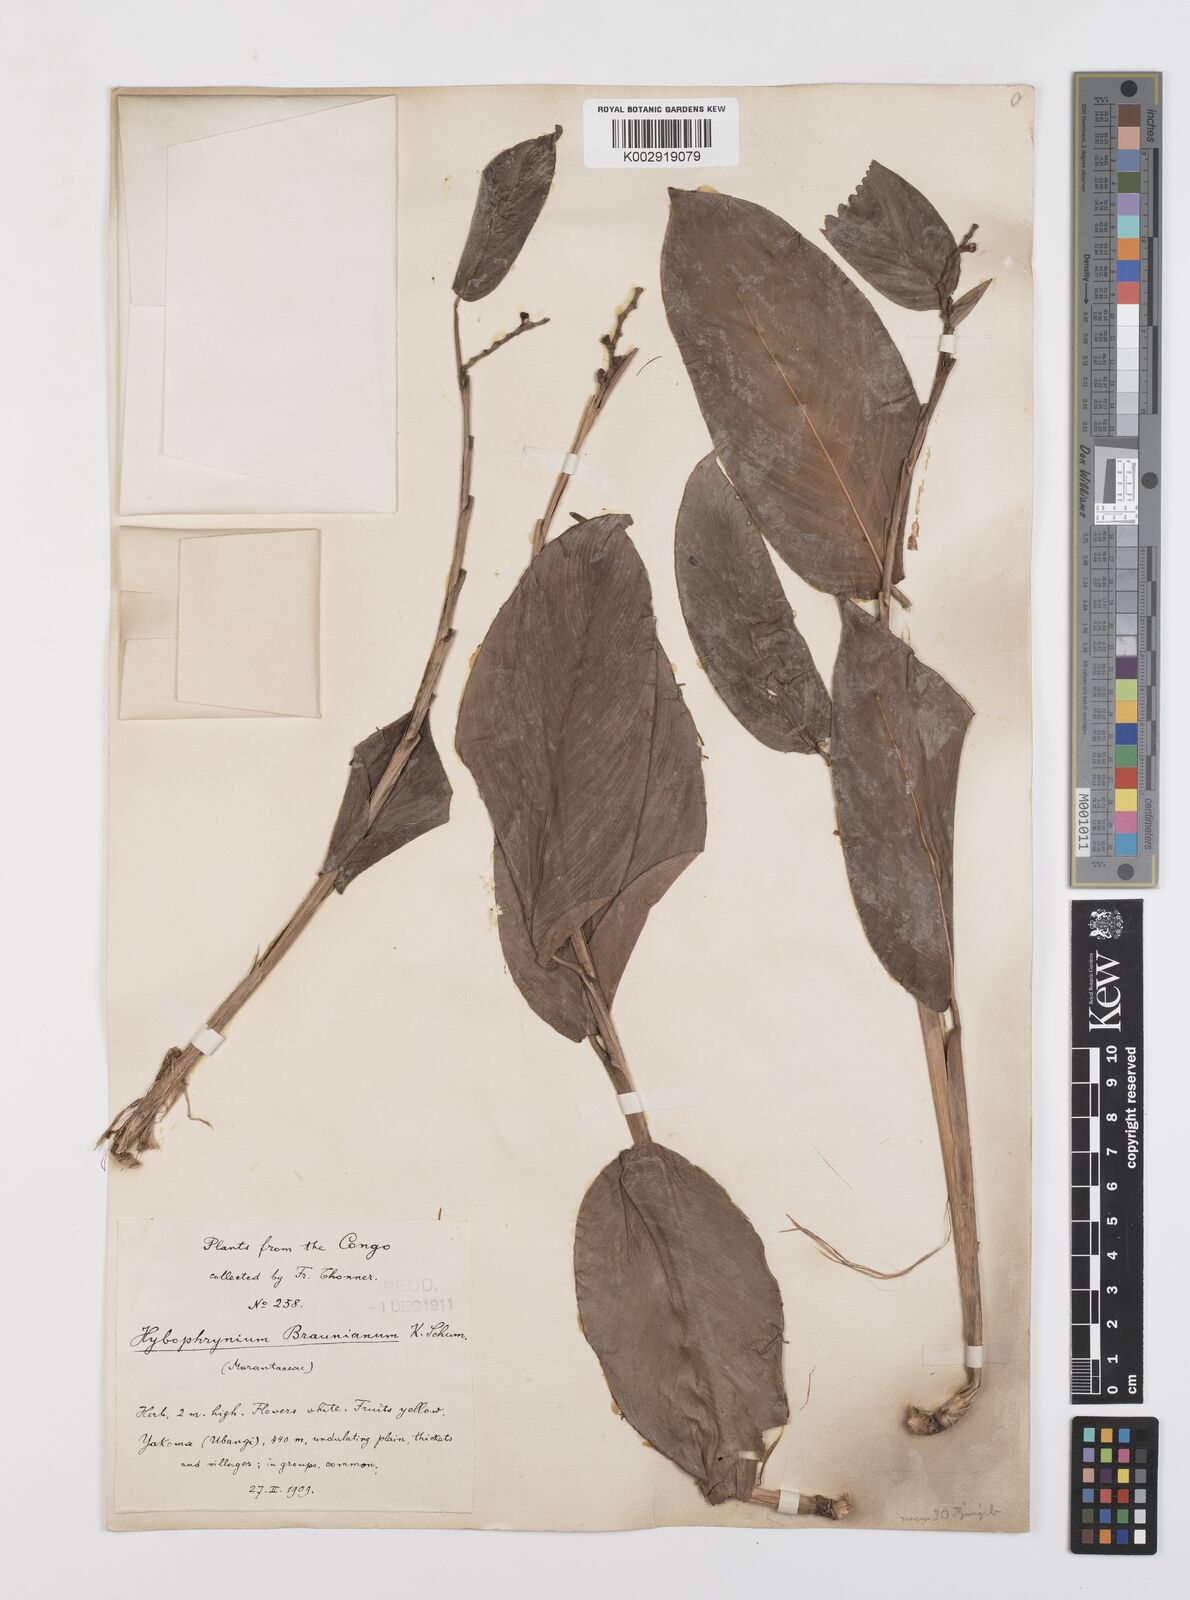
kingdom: Plantae
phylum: Tracheophyta
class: Liliopsida
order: Zingiberales
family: Marantaceae
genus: Trachyphrynium
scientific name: Trachyphrynium braunianum
